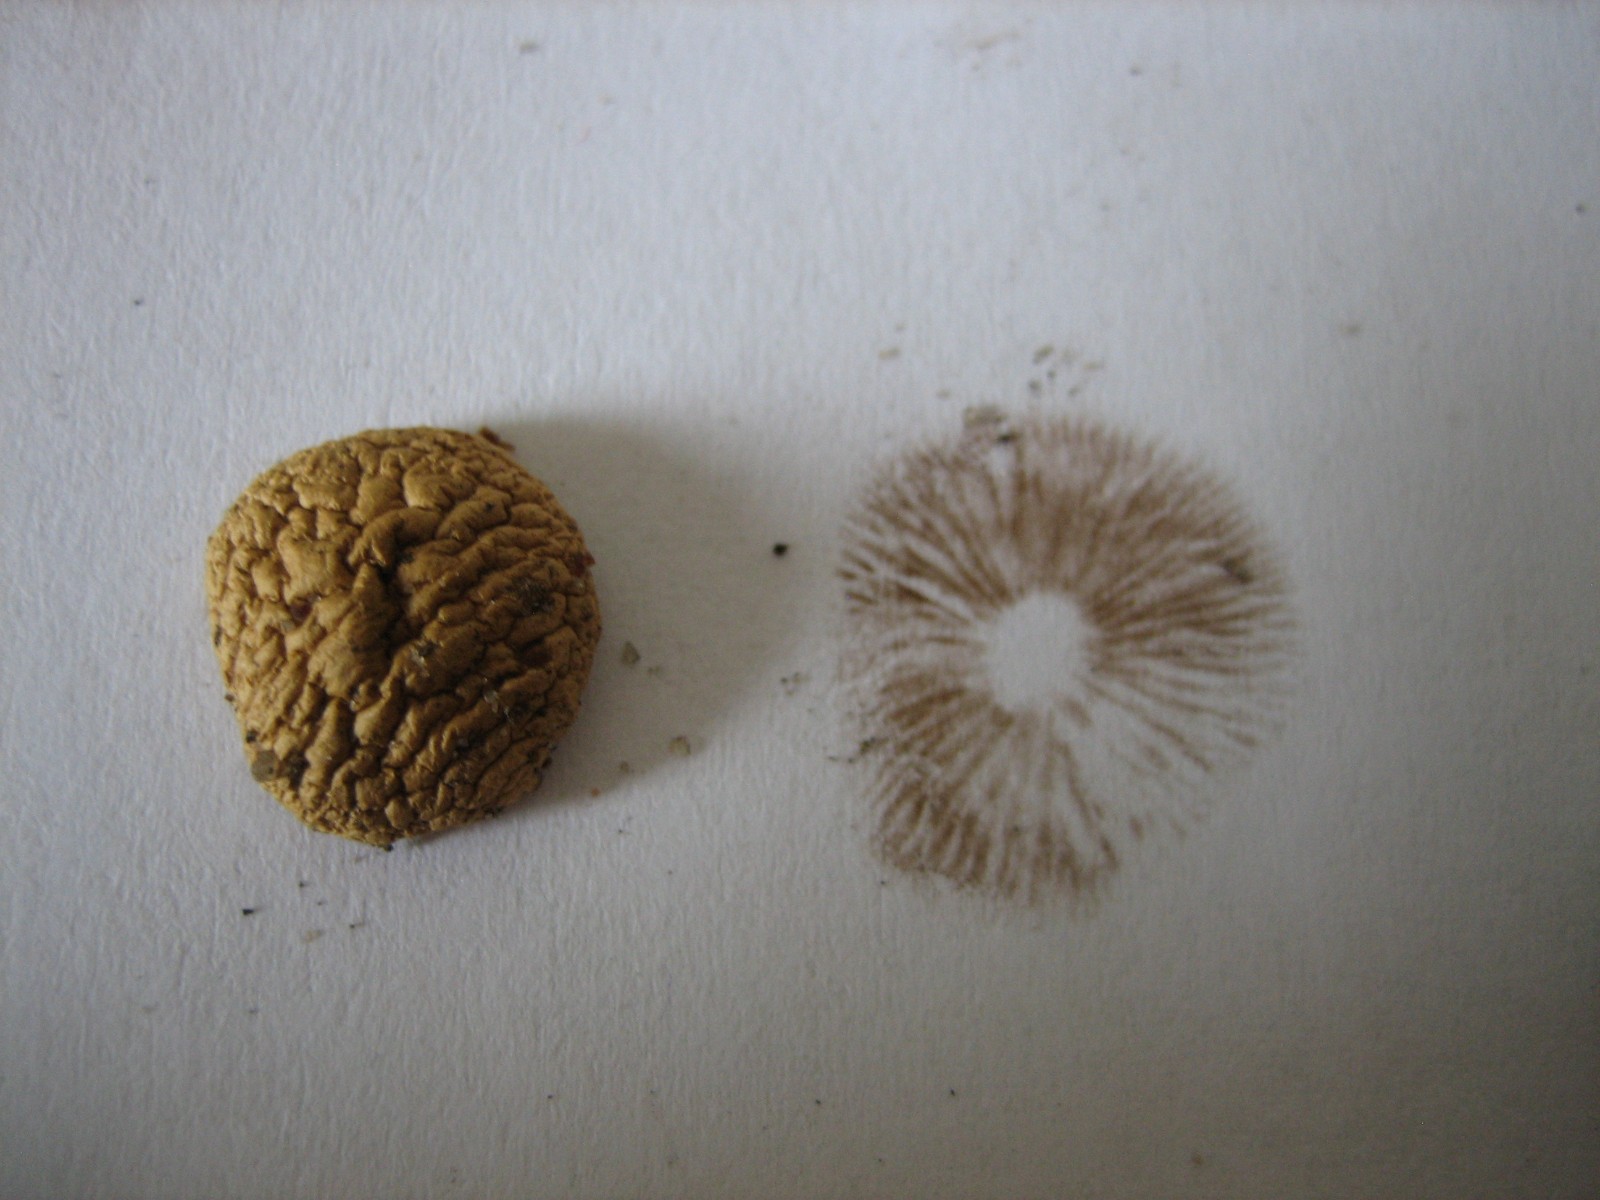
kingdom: Fungi
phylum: Basidiomycota
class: Agaricomycetes
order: Agaricales
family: Strophariaceae
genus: Agrocybe
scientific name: Agrocybe pediades
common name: almindelig agerhat
